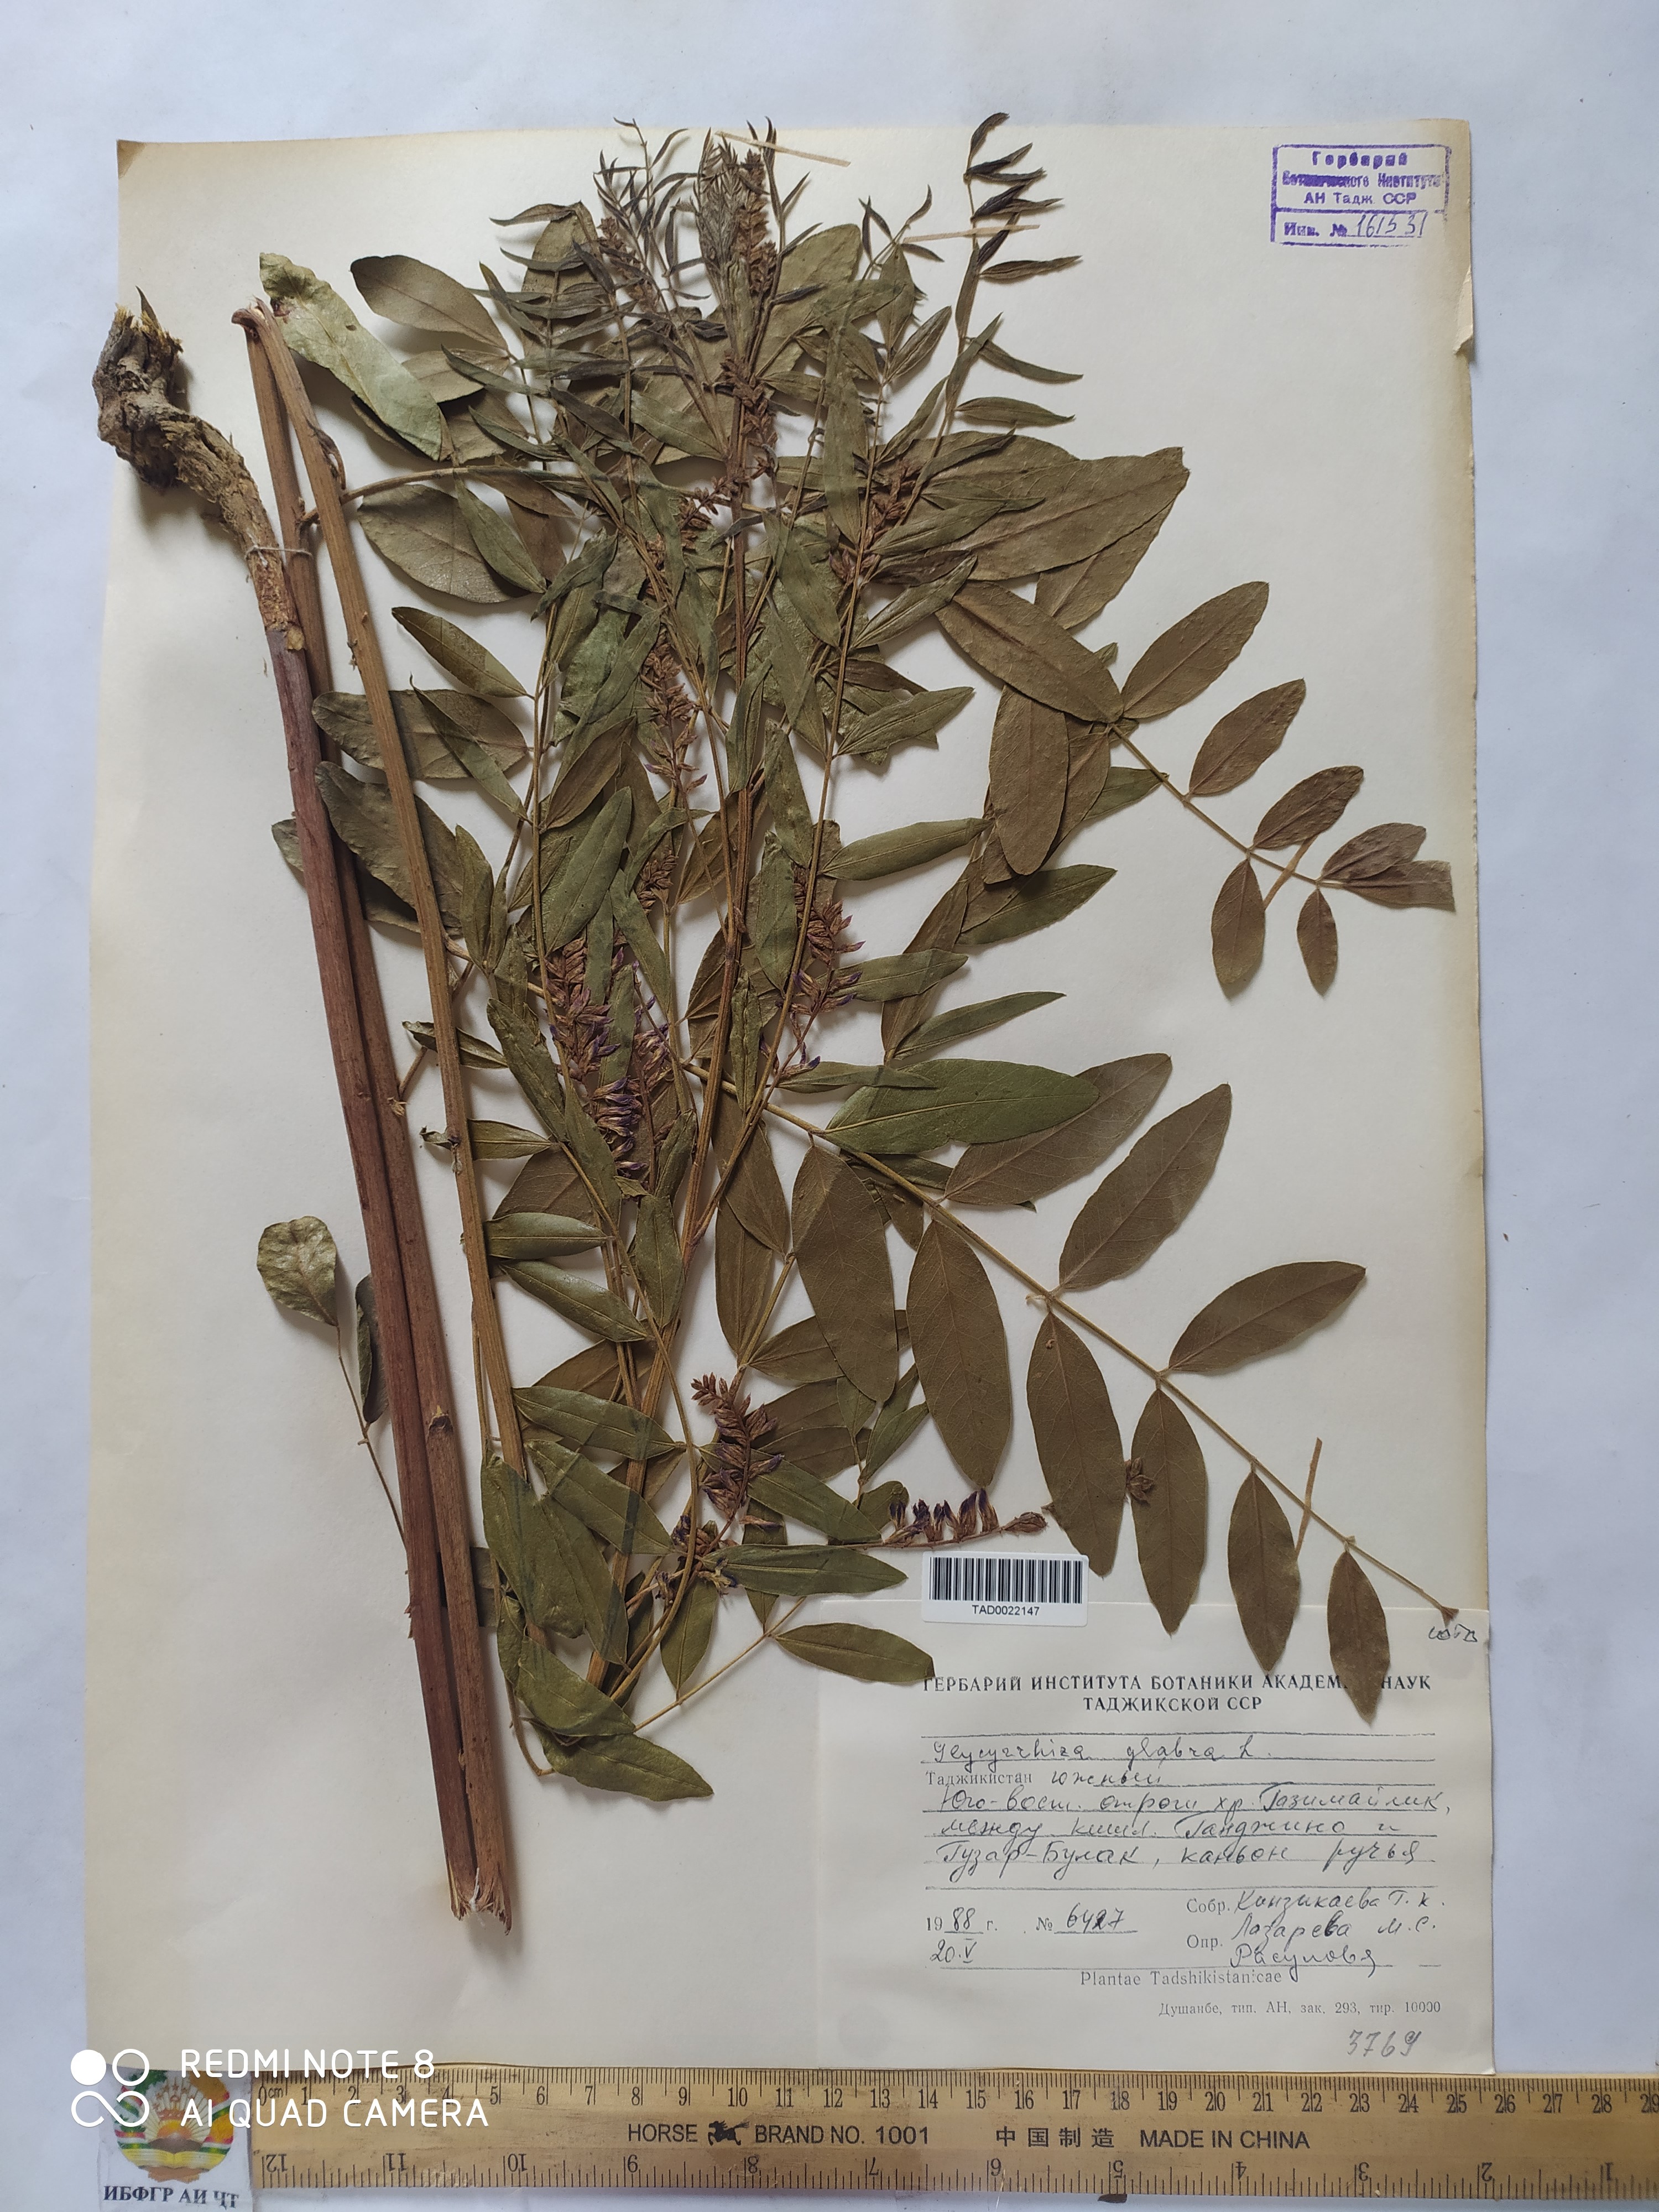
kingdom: Plantae
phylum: Tracheophyta
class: Magnoliopsida
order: Fabales
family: Fabaceae
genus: Glycyrrhiza
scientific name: Glycyrrhiza glabra
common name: Liquorice
